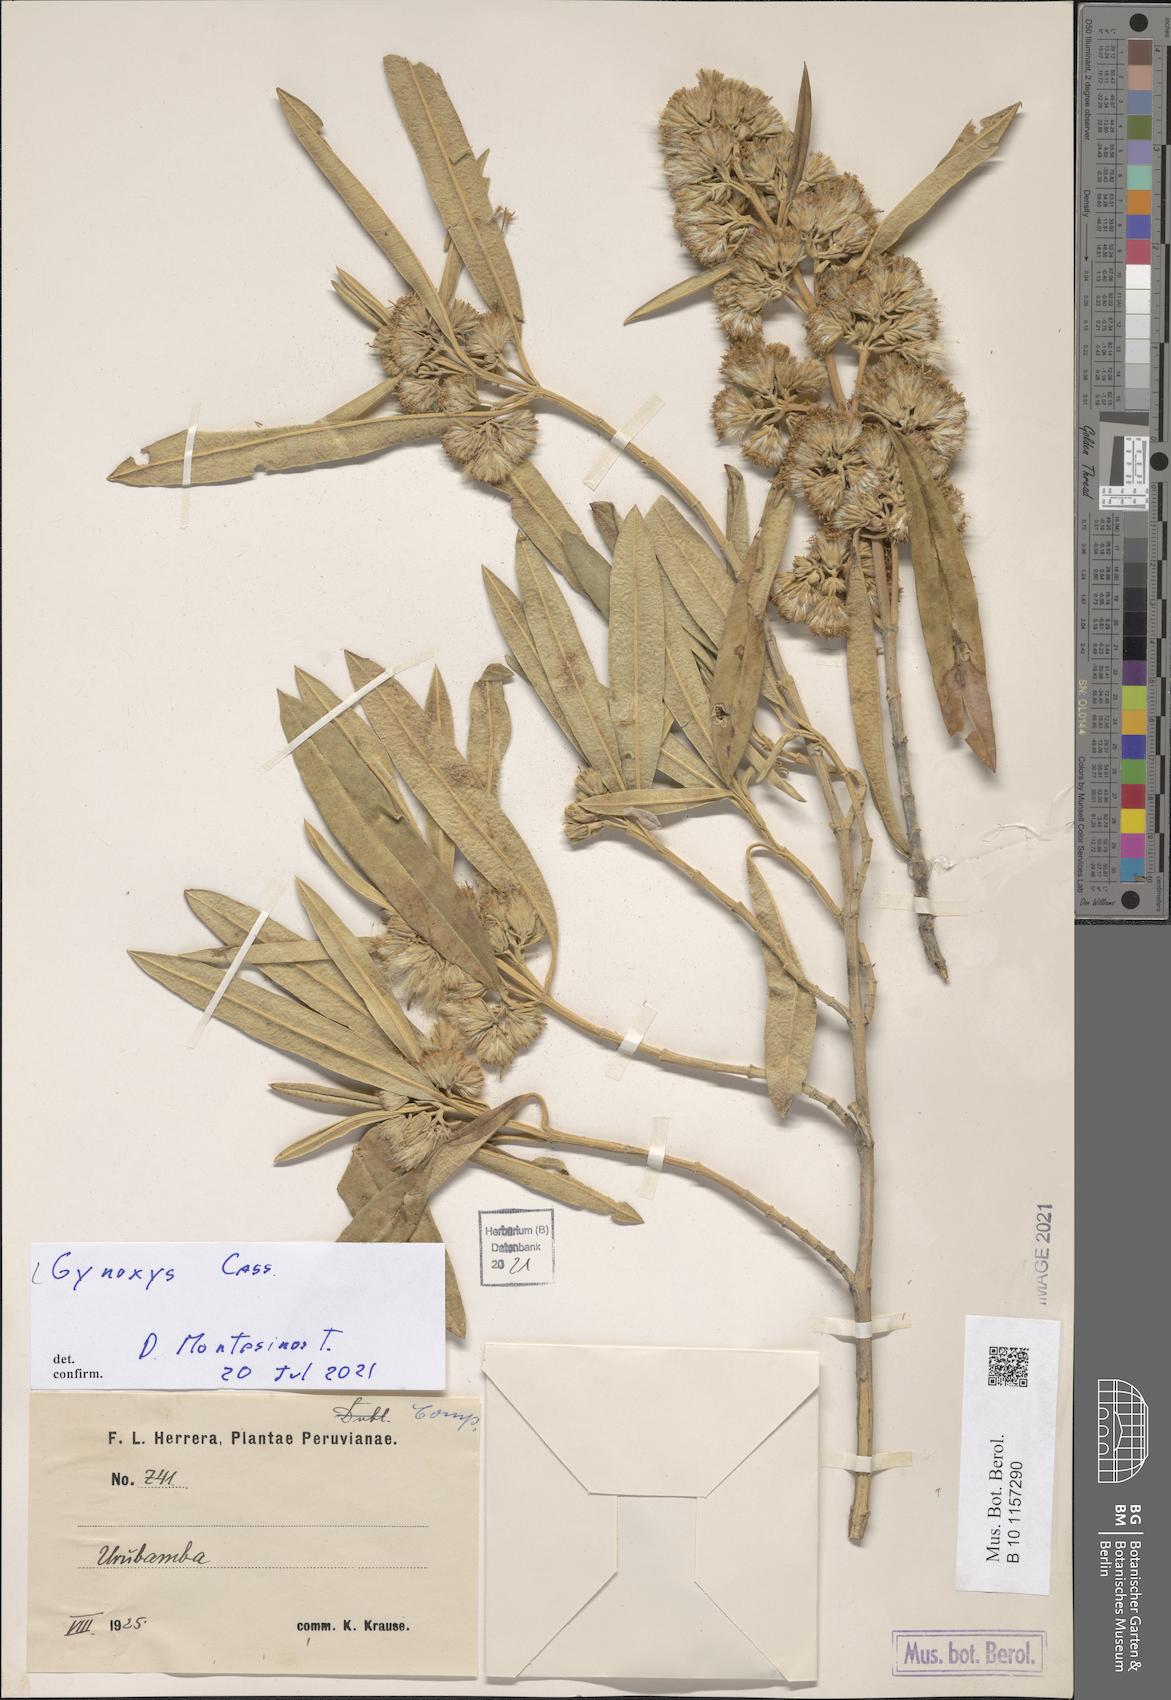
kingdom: Plantae
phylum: Tracheophyta
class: Magnoliopsida
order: Asterales
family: Asteraceae
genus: Gynoxys
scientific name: Gynoxys longifolia
